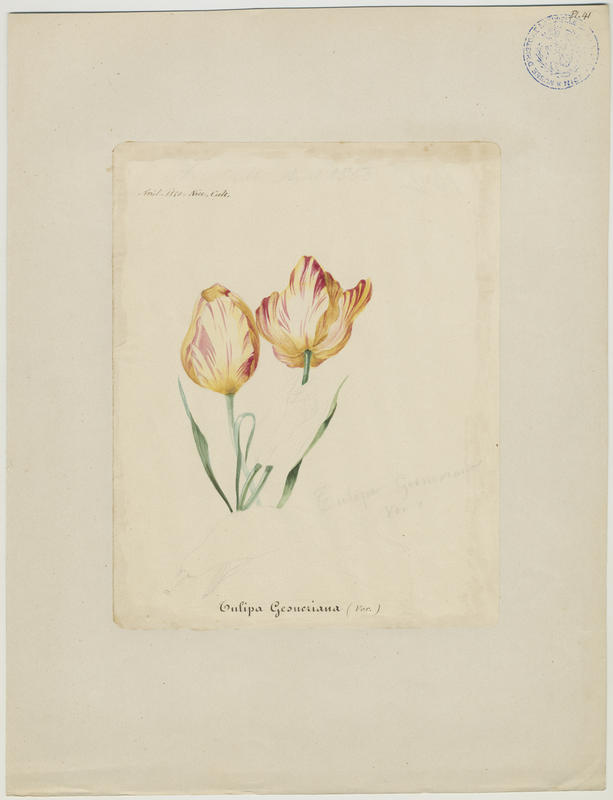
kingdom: Plantae
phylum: Tracheophyta
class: Liliopsida
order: Liliales
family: Liliaceae
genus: Tulipa
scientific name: Tulipa gesneriana
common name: Garden tulip
